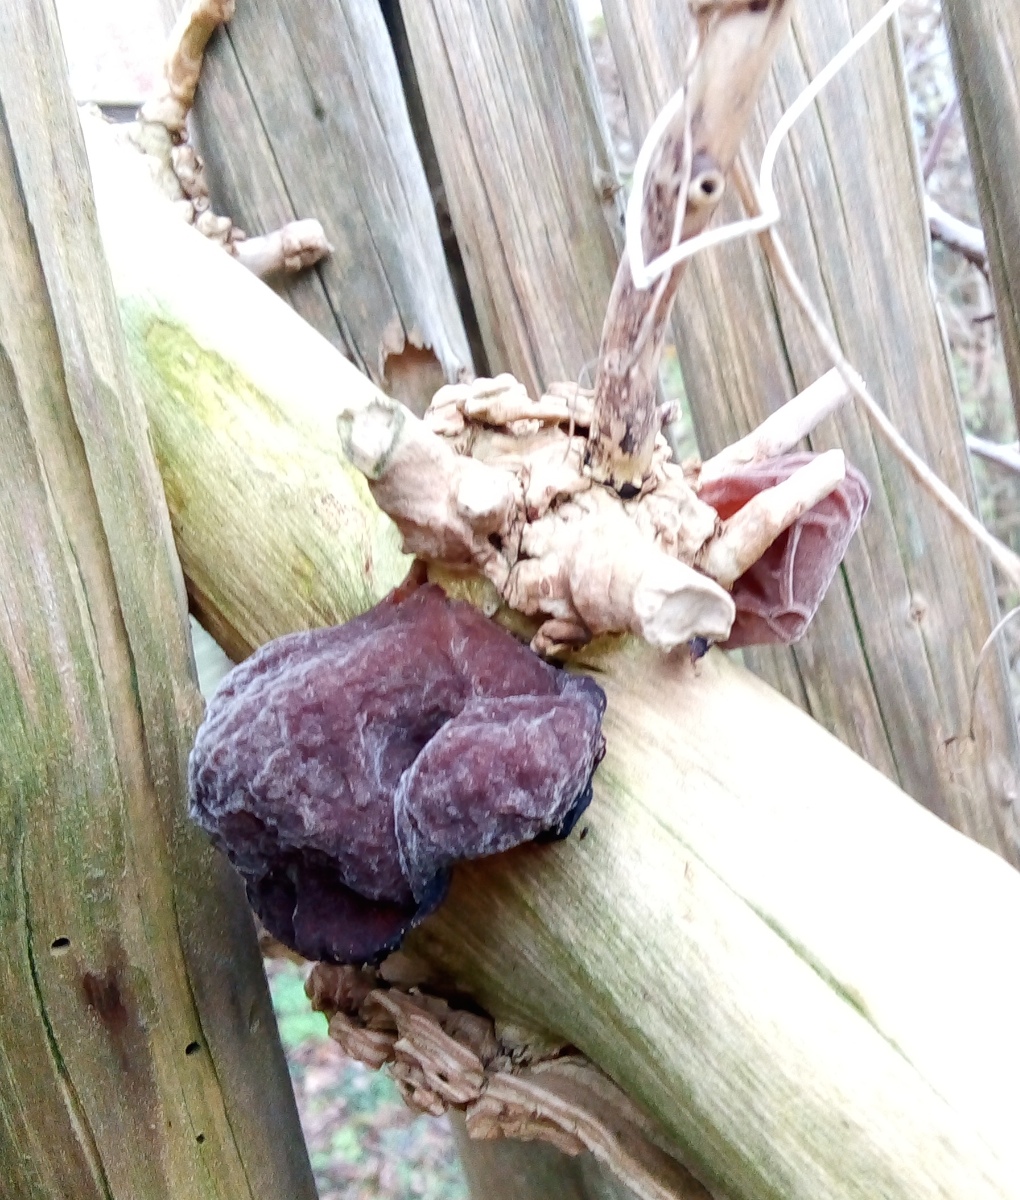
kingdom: Fungi
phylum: Basidiomycota
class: Agaricomycetes
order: Auriculariales
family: Auriculariaceae
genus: Auricularia
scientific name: Auricularia auricula-judae
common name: almindelig judasøre
